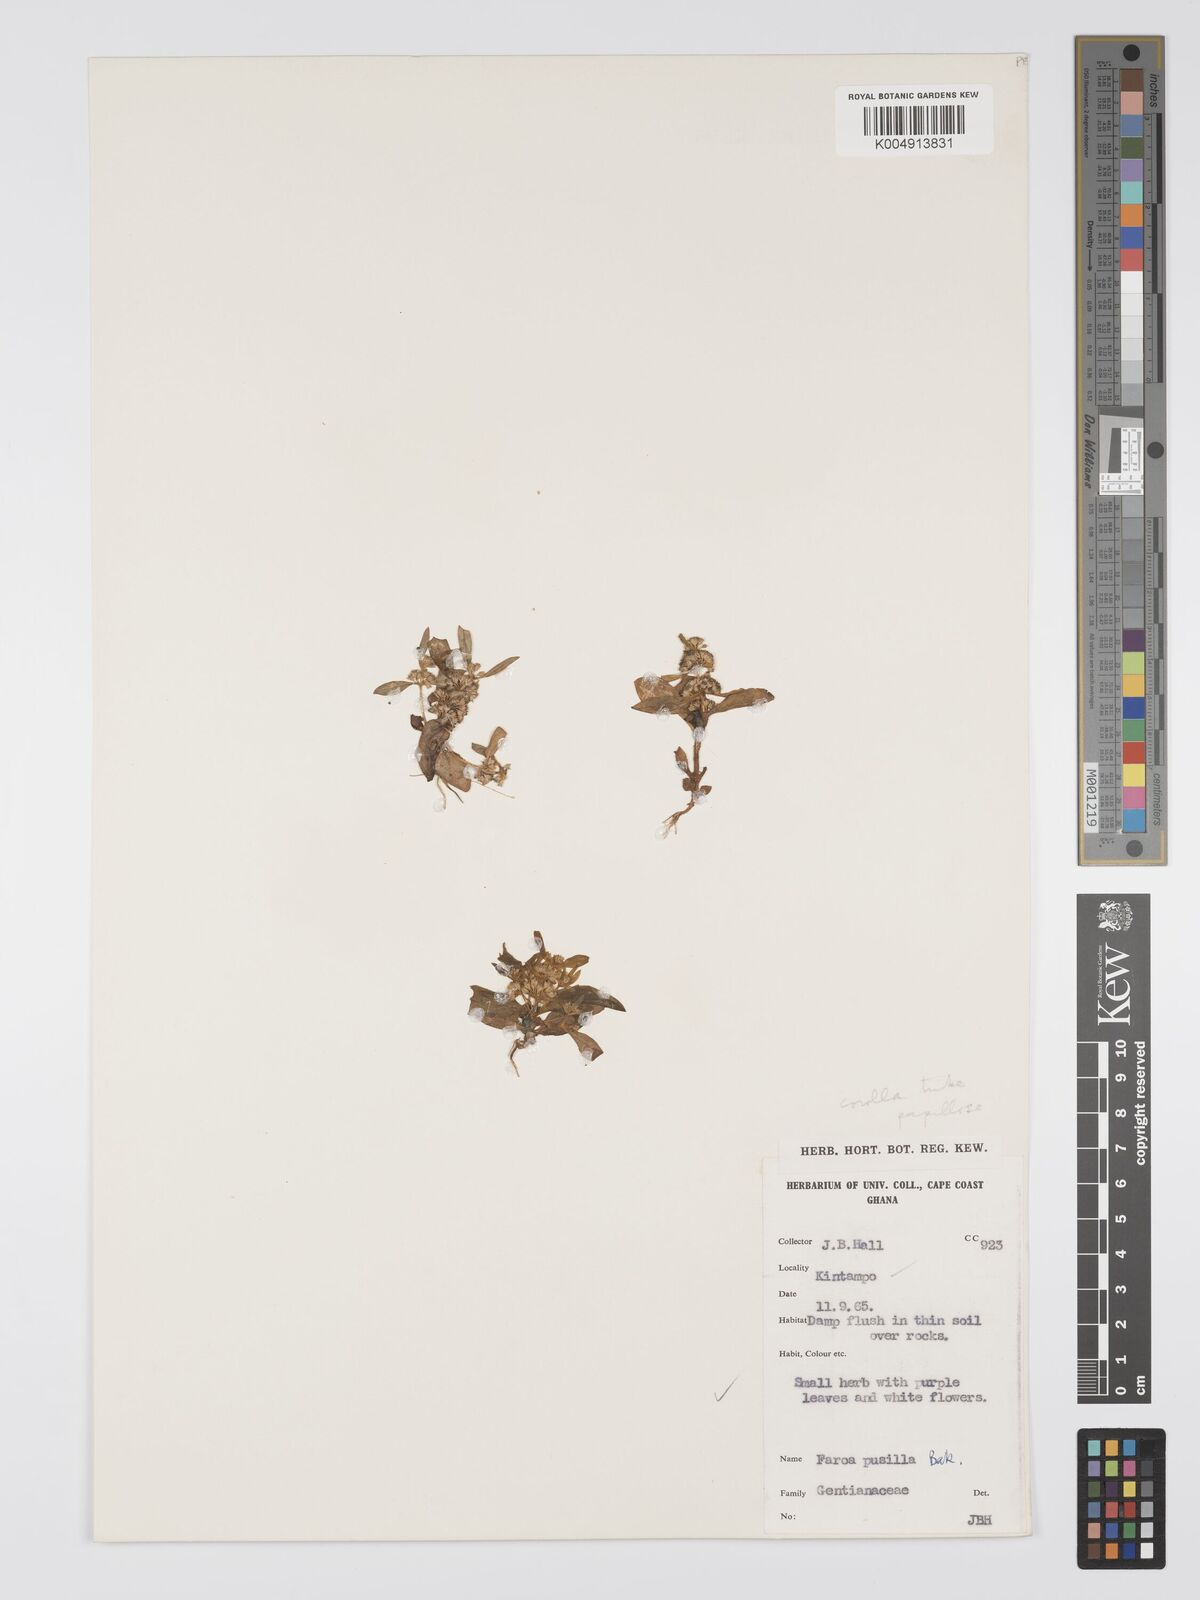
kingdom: Plantae
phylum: Tracheophyta
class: Magnoliopsida
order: Gentianales
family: Gentianaceae
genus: Faroa
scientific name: Faroa pusilla
